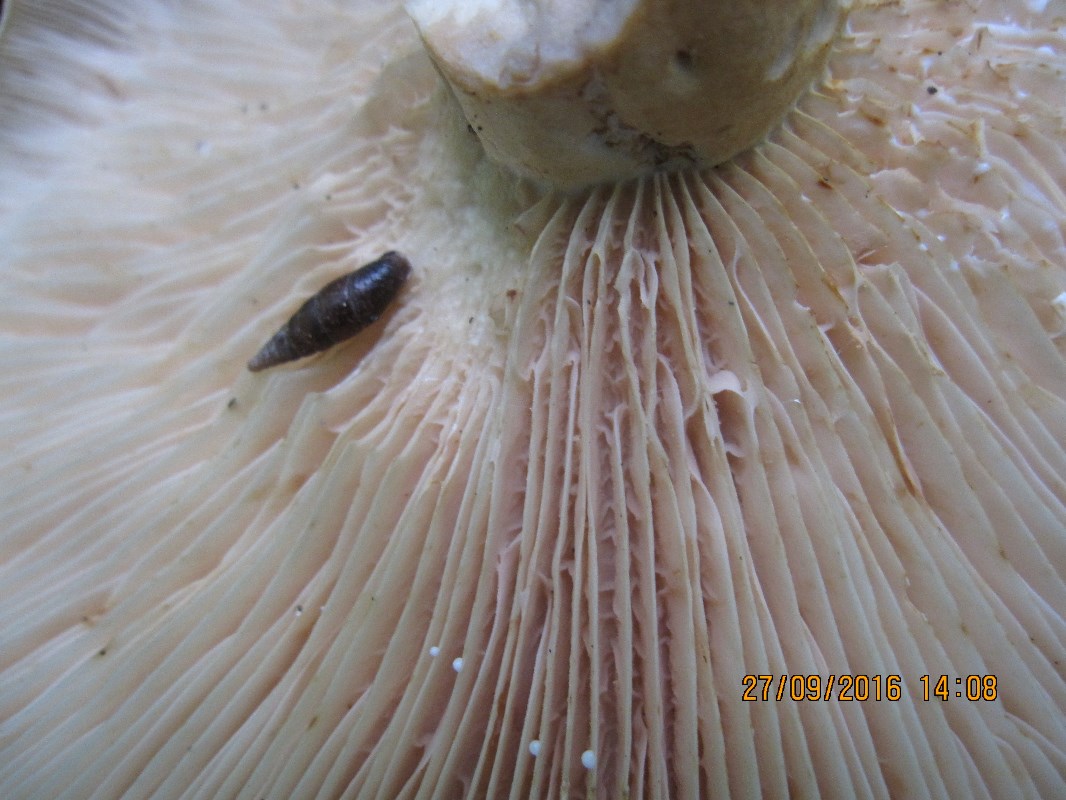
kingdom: Fungi
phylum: Basidiomycota
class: Agaricomycetes
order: Russulales
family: Russulaceae
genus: Lactarius
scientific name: Lactarius acerrimus
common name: brændende mælkehat
